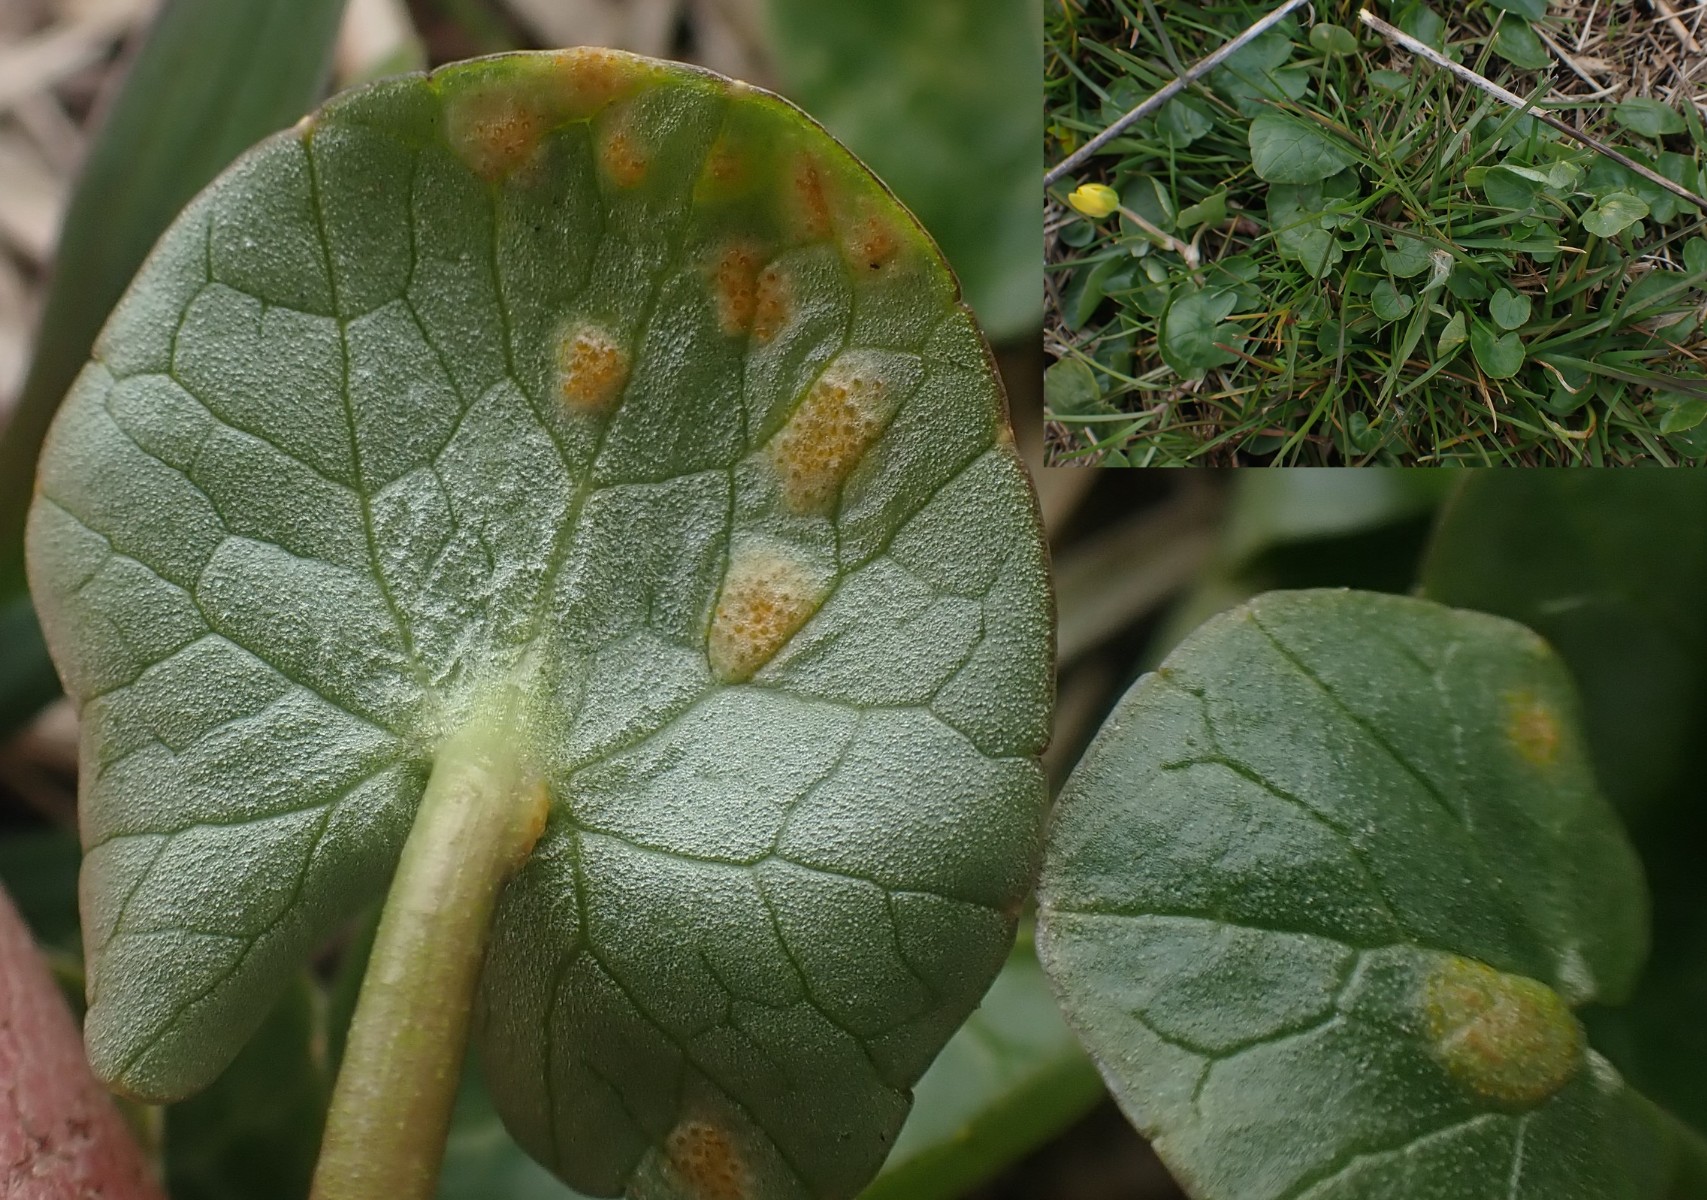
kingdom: Fungi
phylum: Basidiomycota
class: Pucciniomycetes
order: Pucciniales
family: Pucciniaceae
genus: Uromyces
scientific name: Uromyces dactylidis
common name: ranunkel-encellerust
